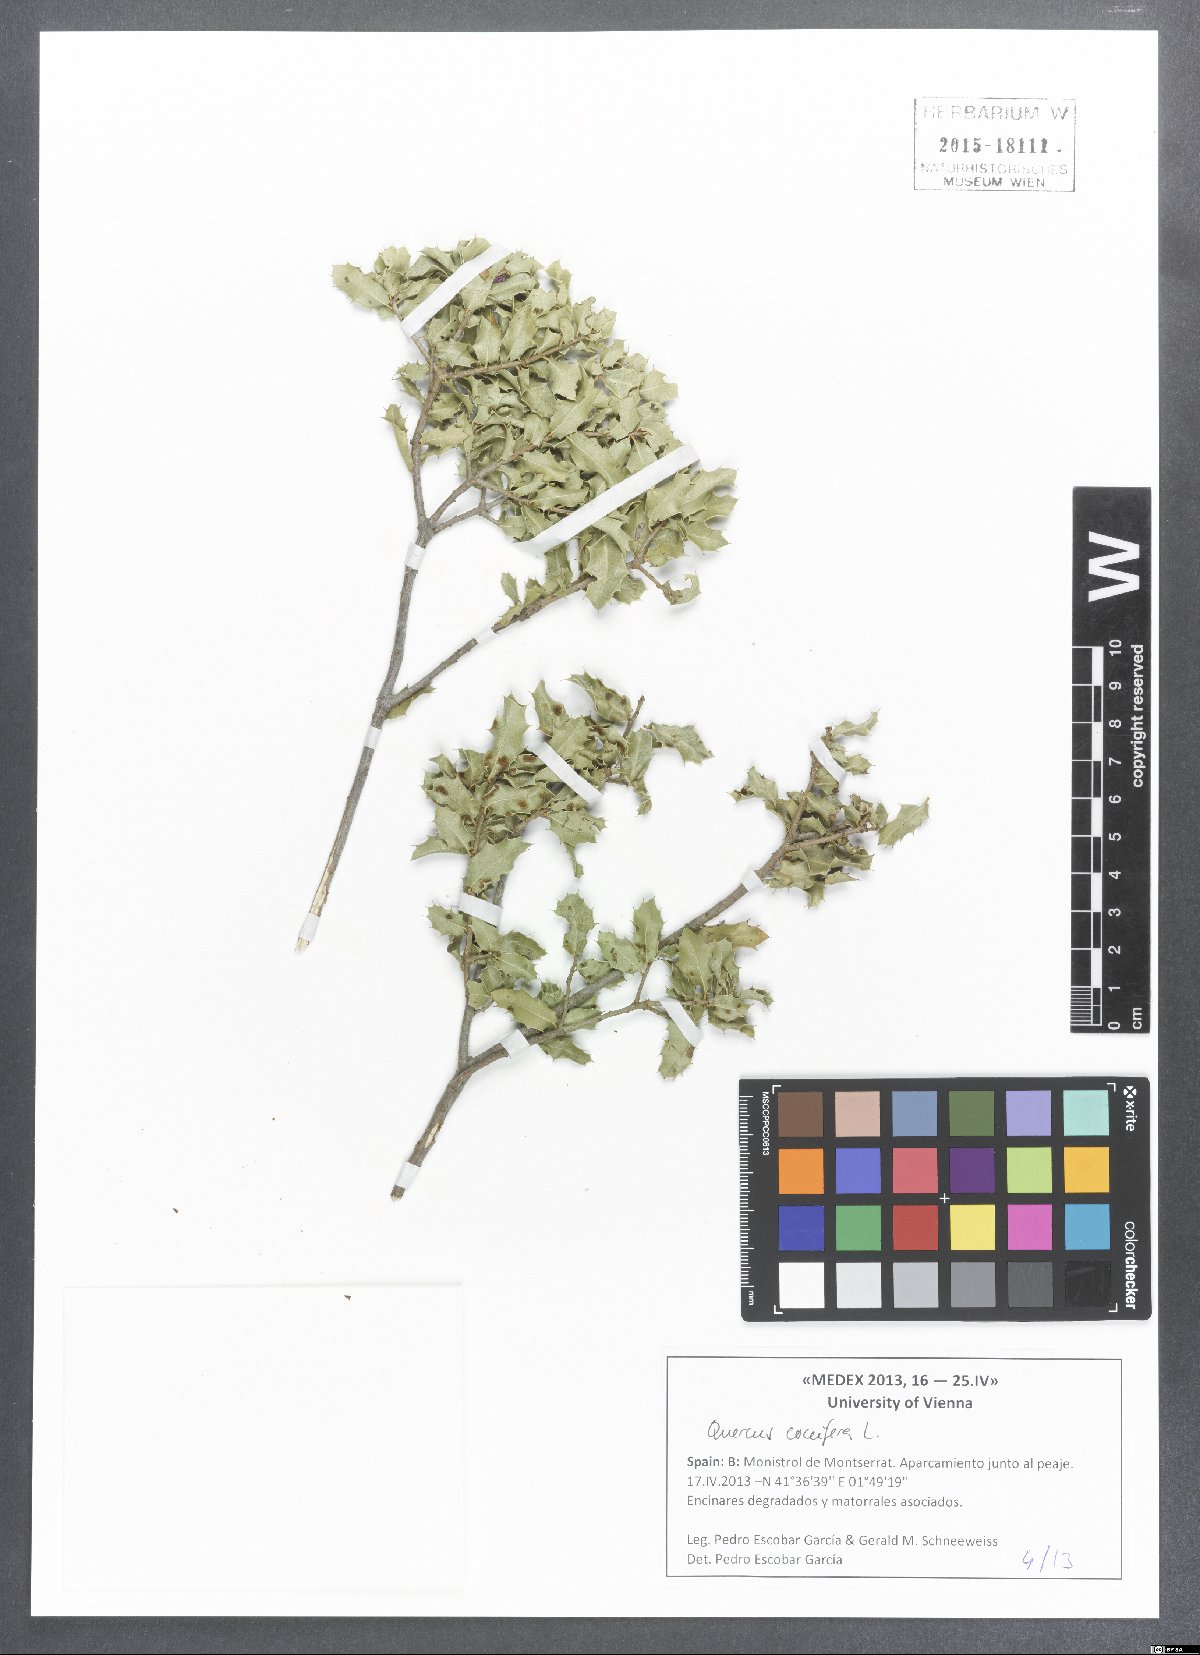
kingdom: Plantae
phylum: Tracheophyta
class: Magnoliopsida
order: Fagales
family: Fagaceae
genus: Quercus
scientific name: Quercus coccifera
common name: Kermes oak
